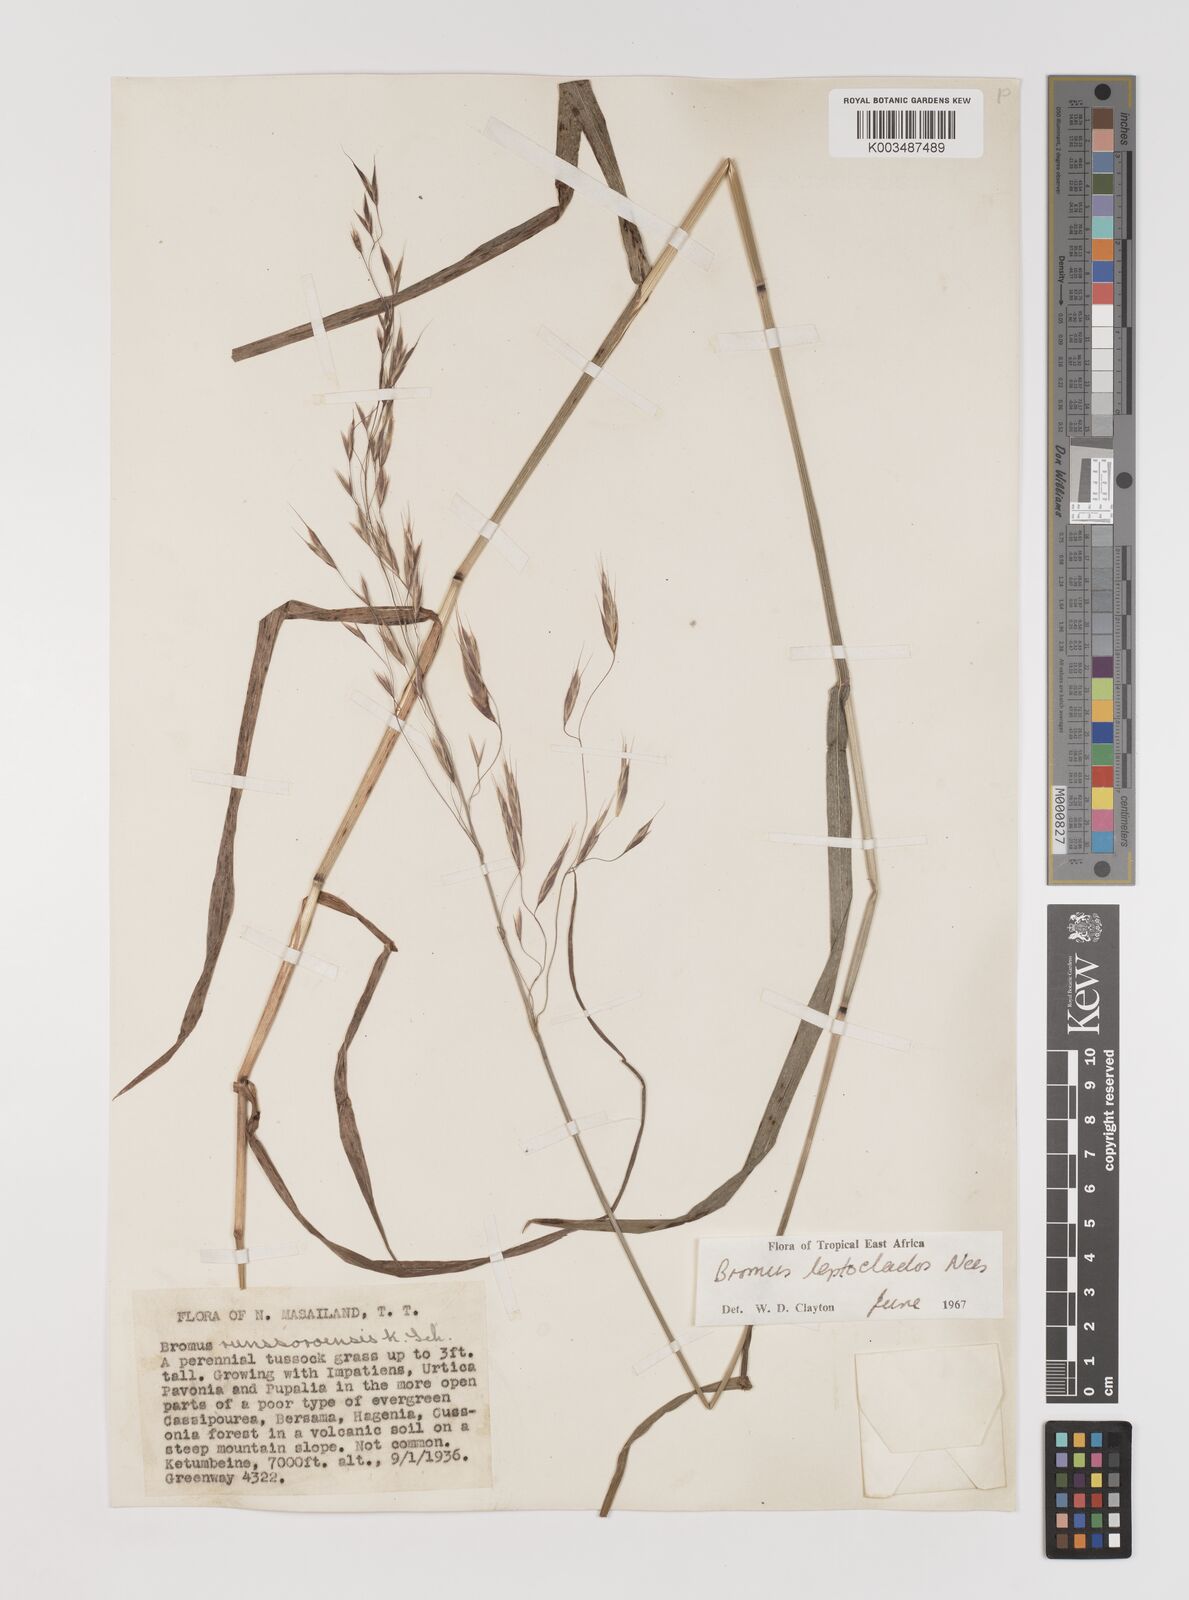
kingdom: Plantae
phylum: Tracheophyta
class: Liliopsida
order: Poales
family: Poaceae
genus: Bromus
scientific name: Bromus leptoclados
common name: Mountain bromegrass
